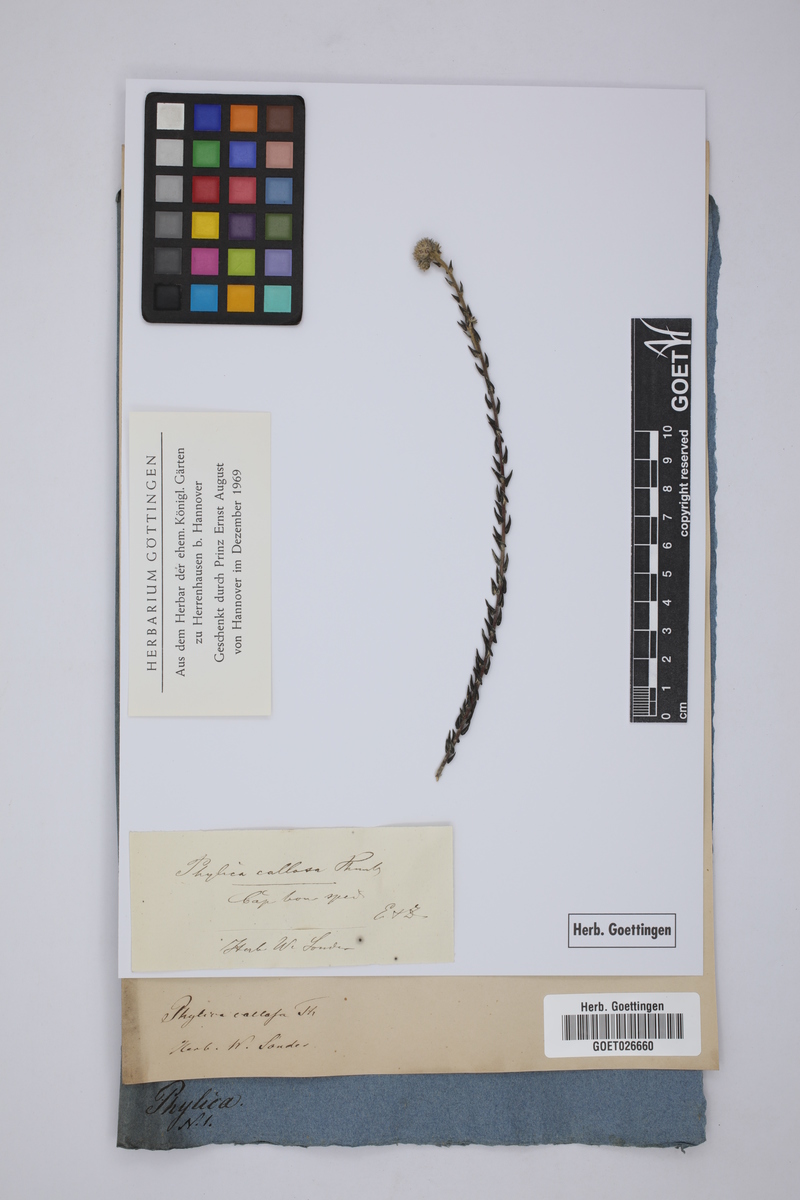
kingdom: Plantae
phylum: Tracheophyta
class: Magnoliopsida
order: Rosales
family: Rhamnaceae
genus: Phylica
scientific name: Phylica callosa
